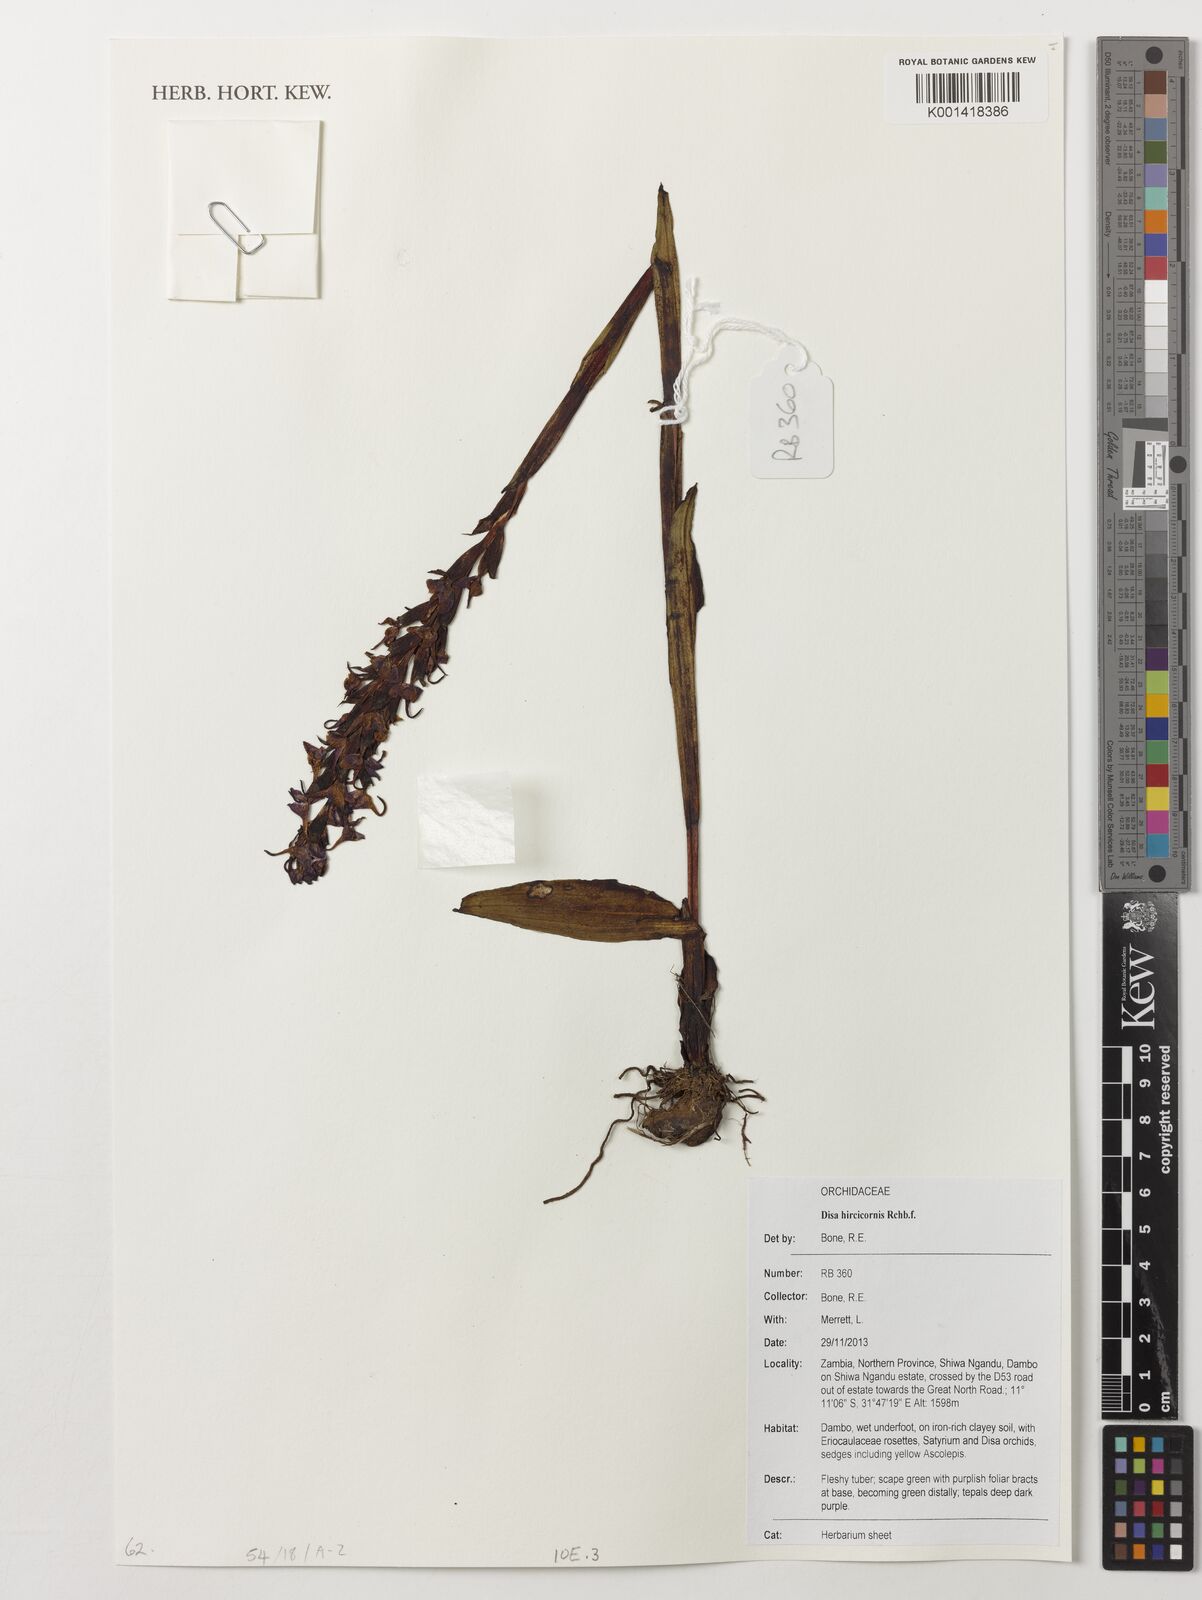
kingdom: Plantae
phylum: Tracheophyta
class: Liliopsida
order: Asparagales
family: Orchidaceae
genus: Disa
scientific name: Disa hircicornis
